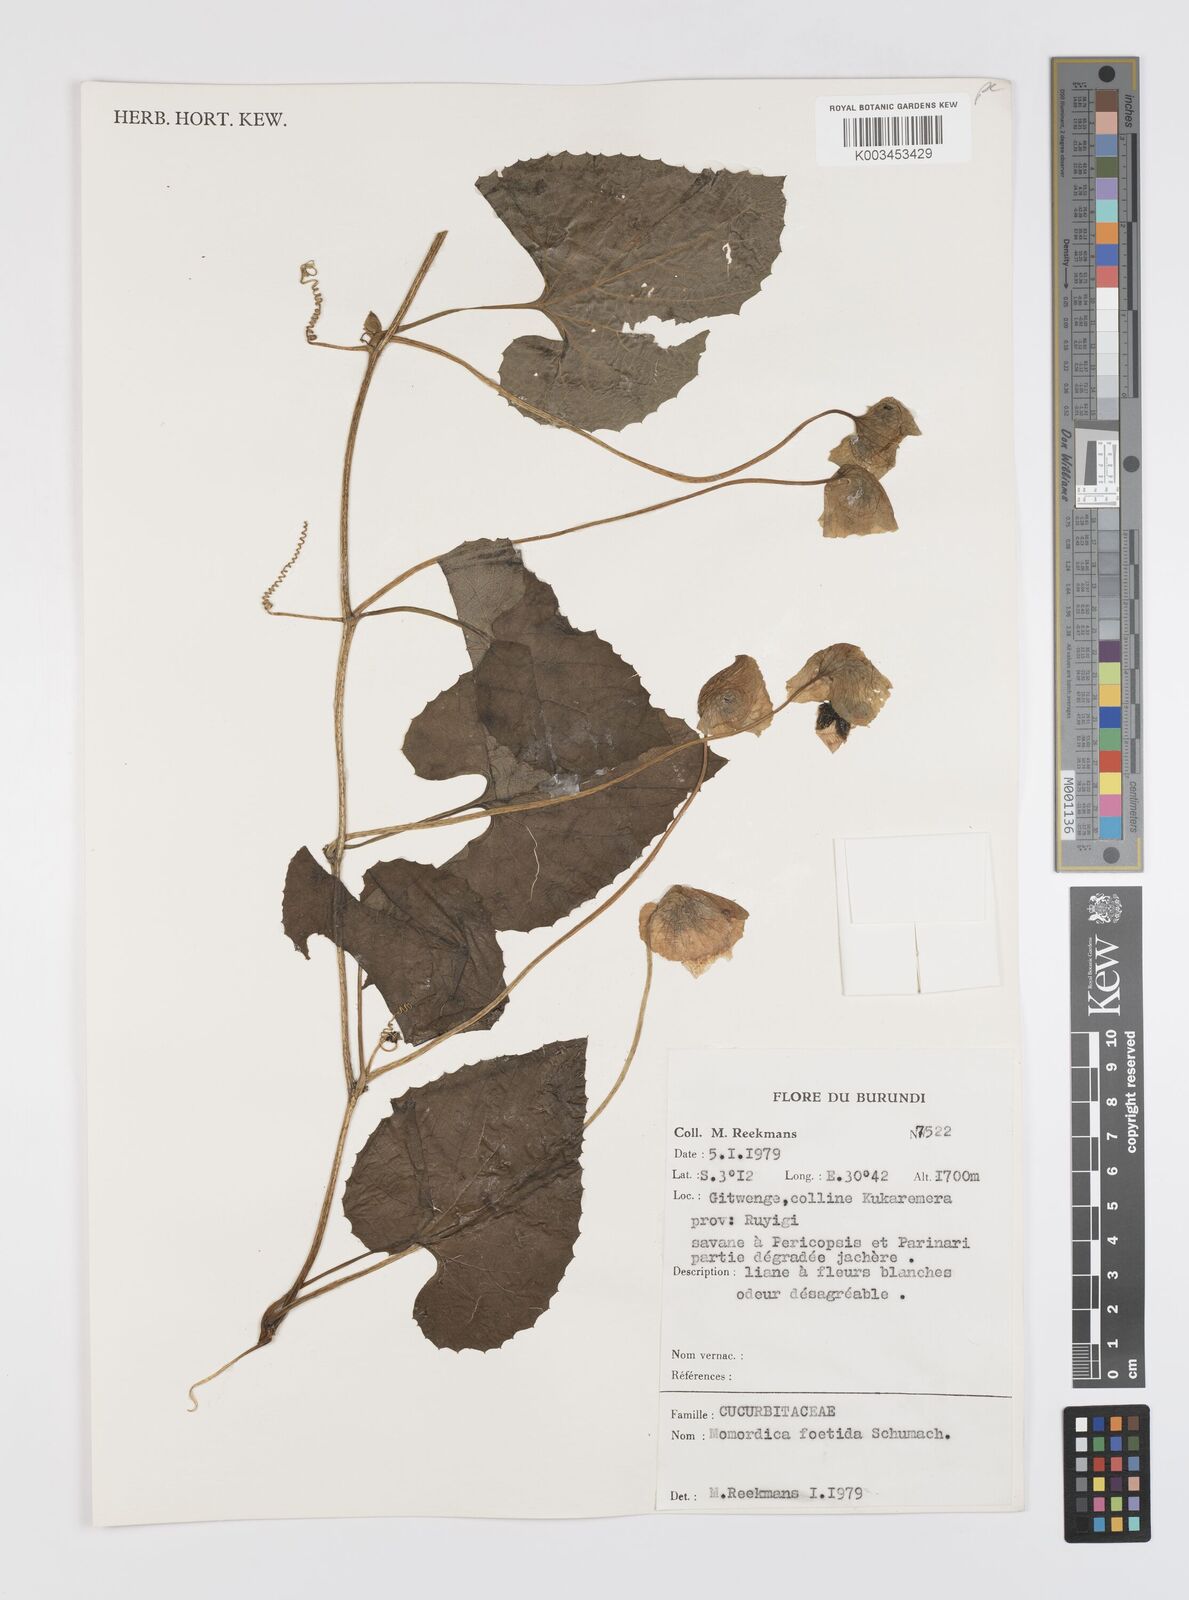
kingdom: Plantae
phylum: Tracheophyta
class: Magnoliopsida
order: Cucurbitales
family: Cucurbitaceae
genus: Momordica
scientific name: Momordica foetida
